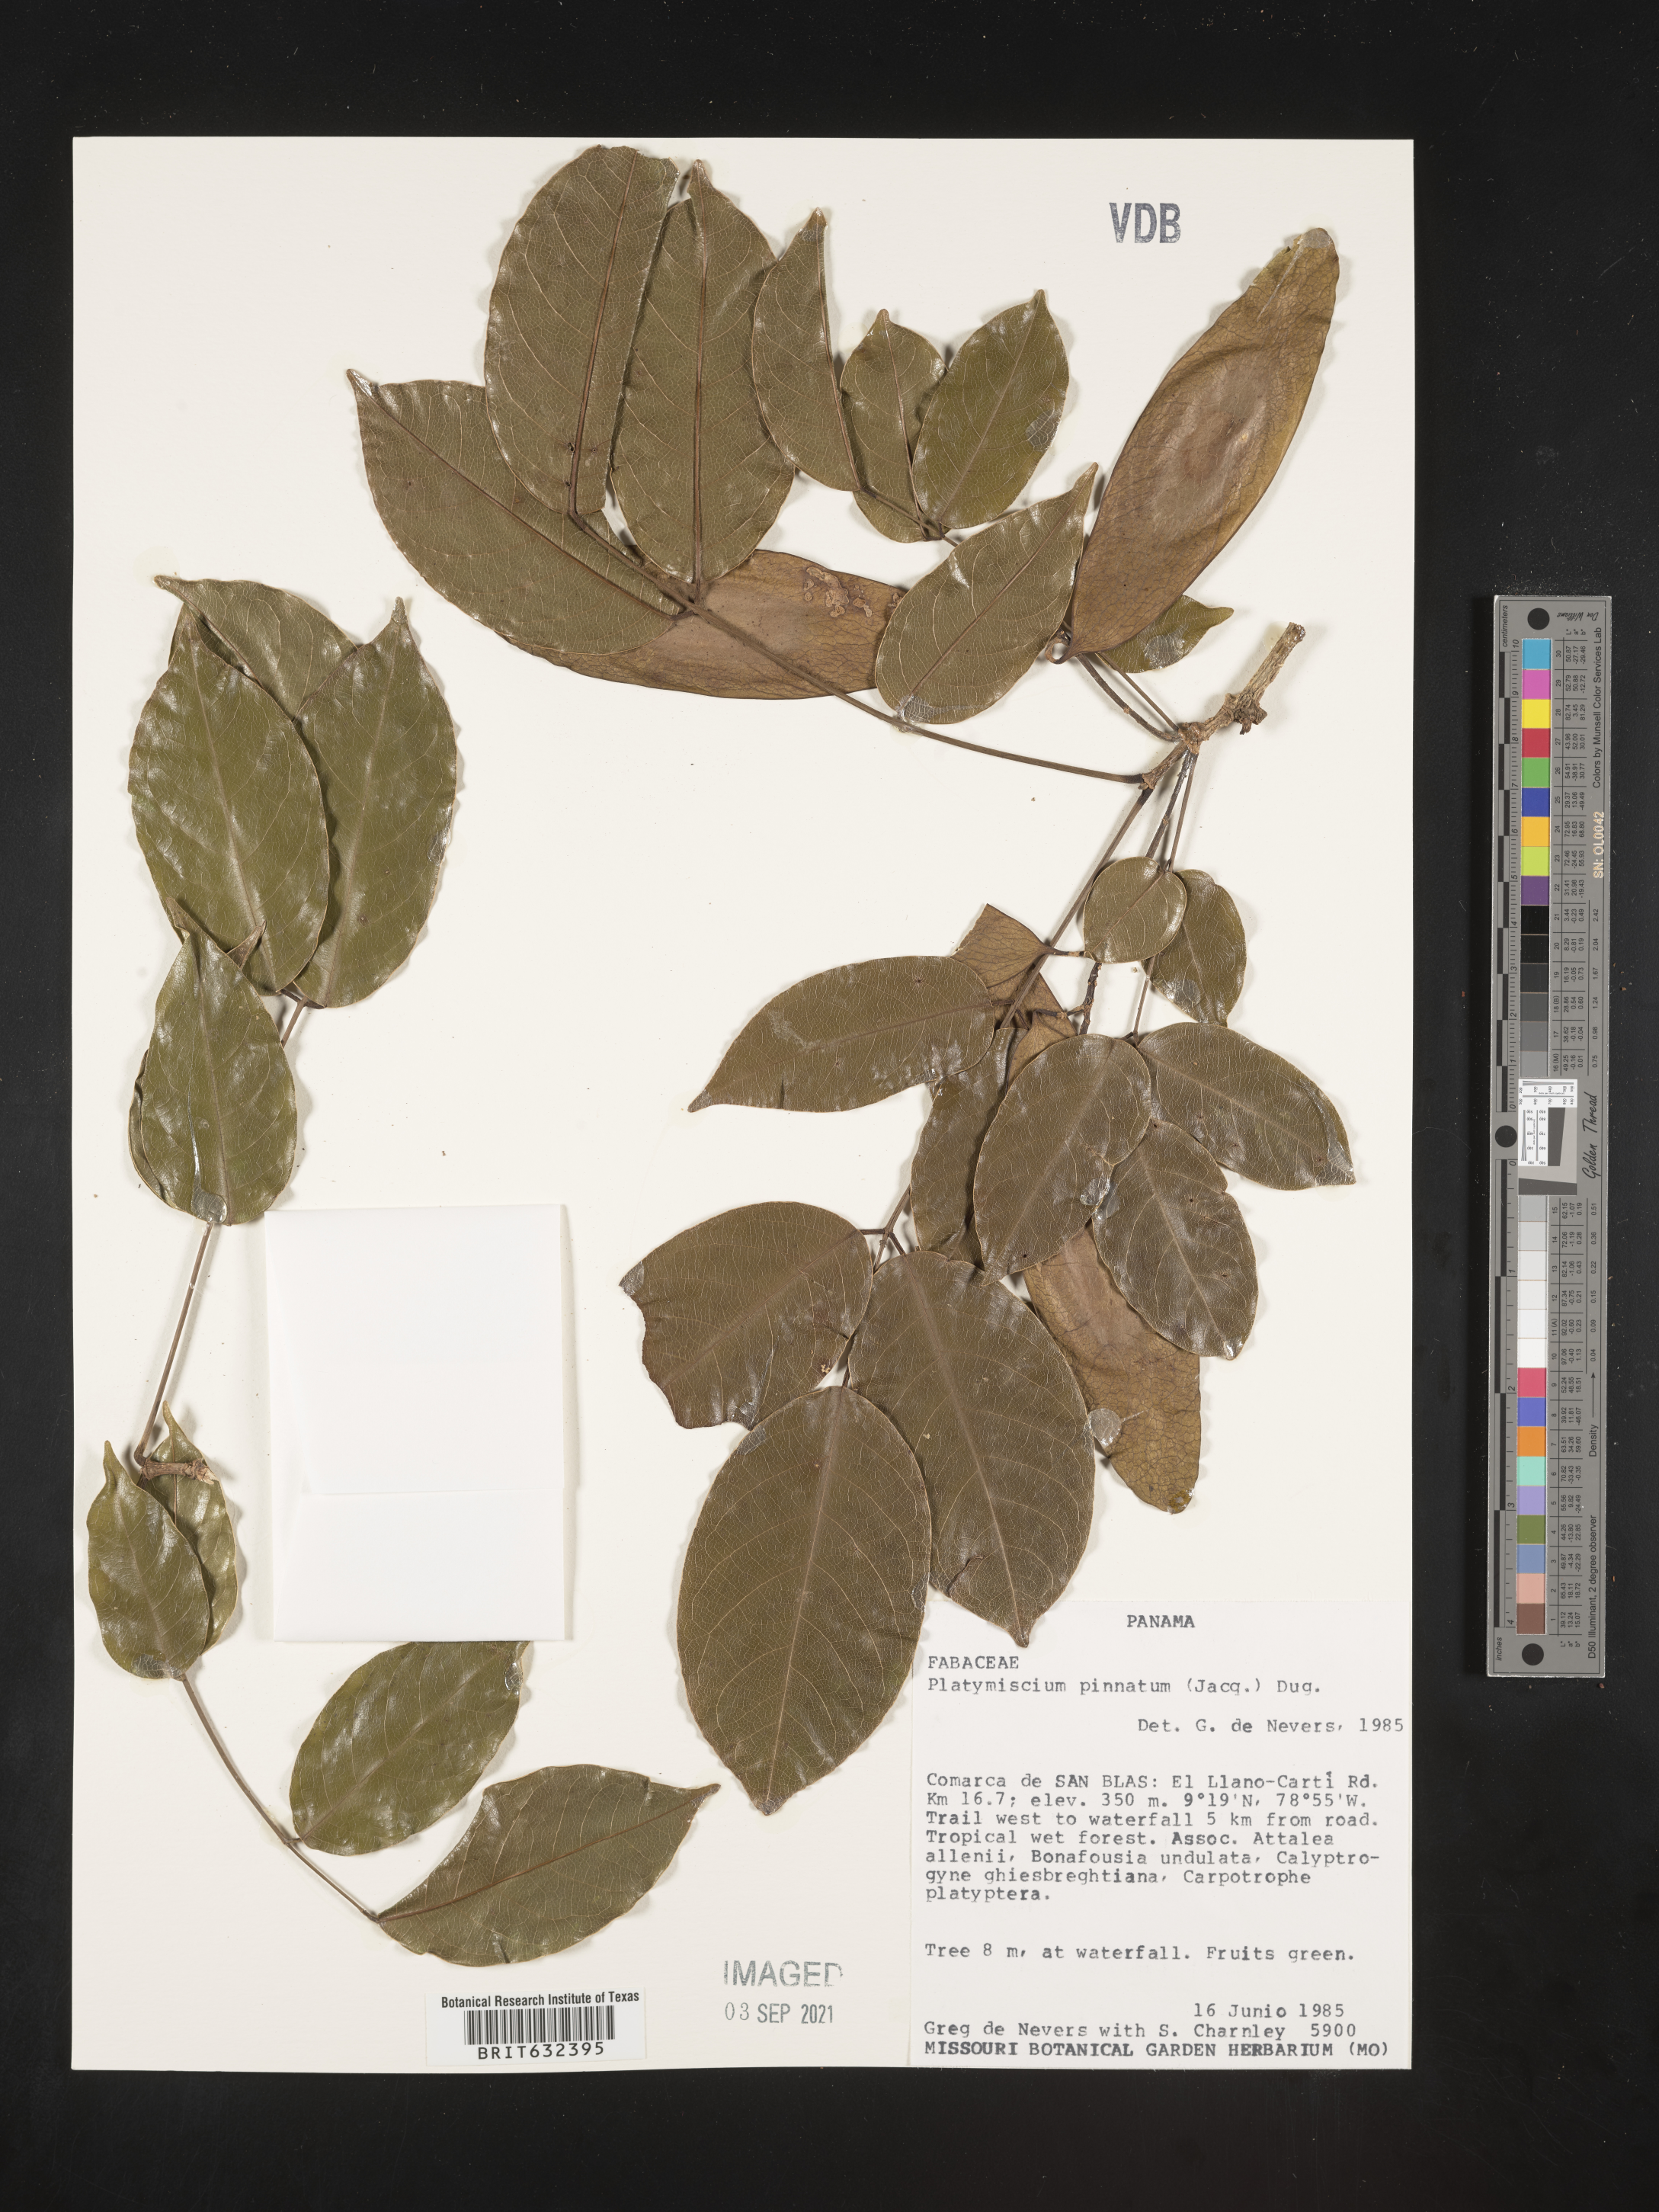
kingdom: Plantae
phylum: Tracheophyta
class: Magnoliopsida
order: Fabales
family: Fabaceae
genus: Platymiscium
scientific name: Platymiscium
